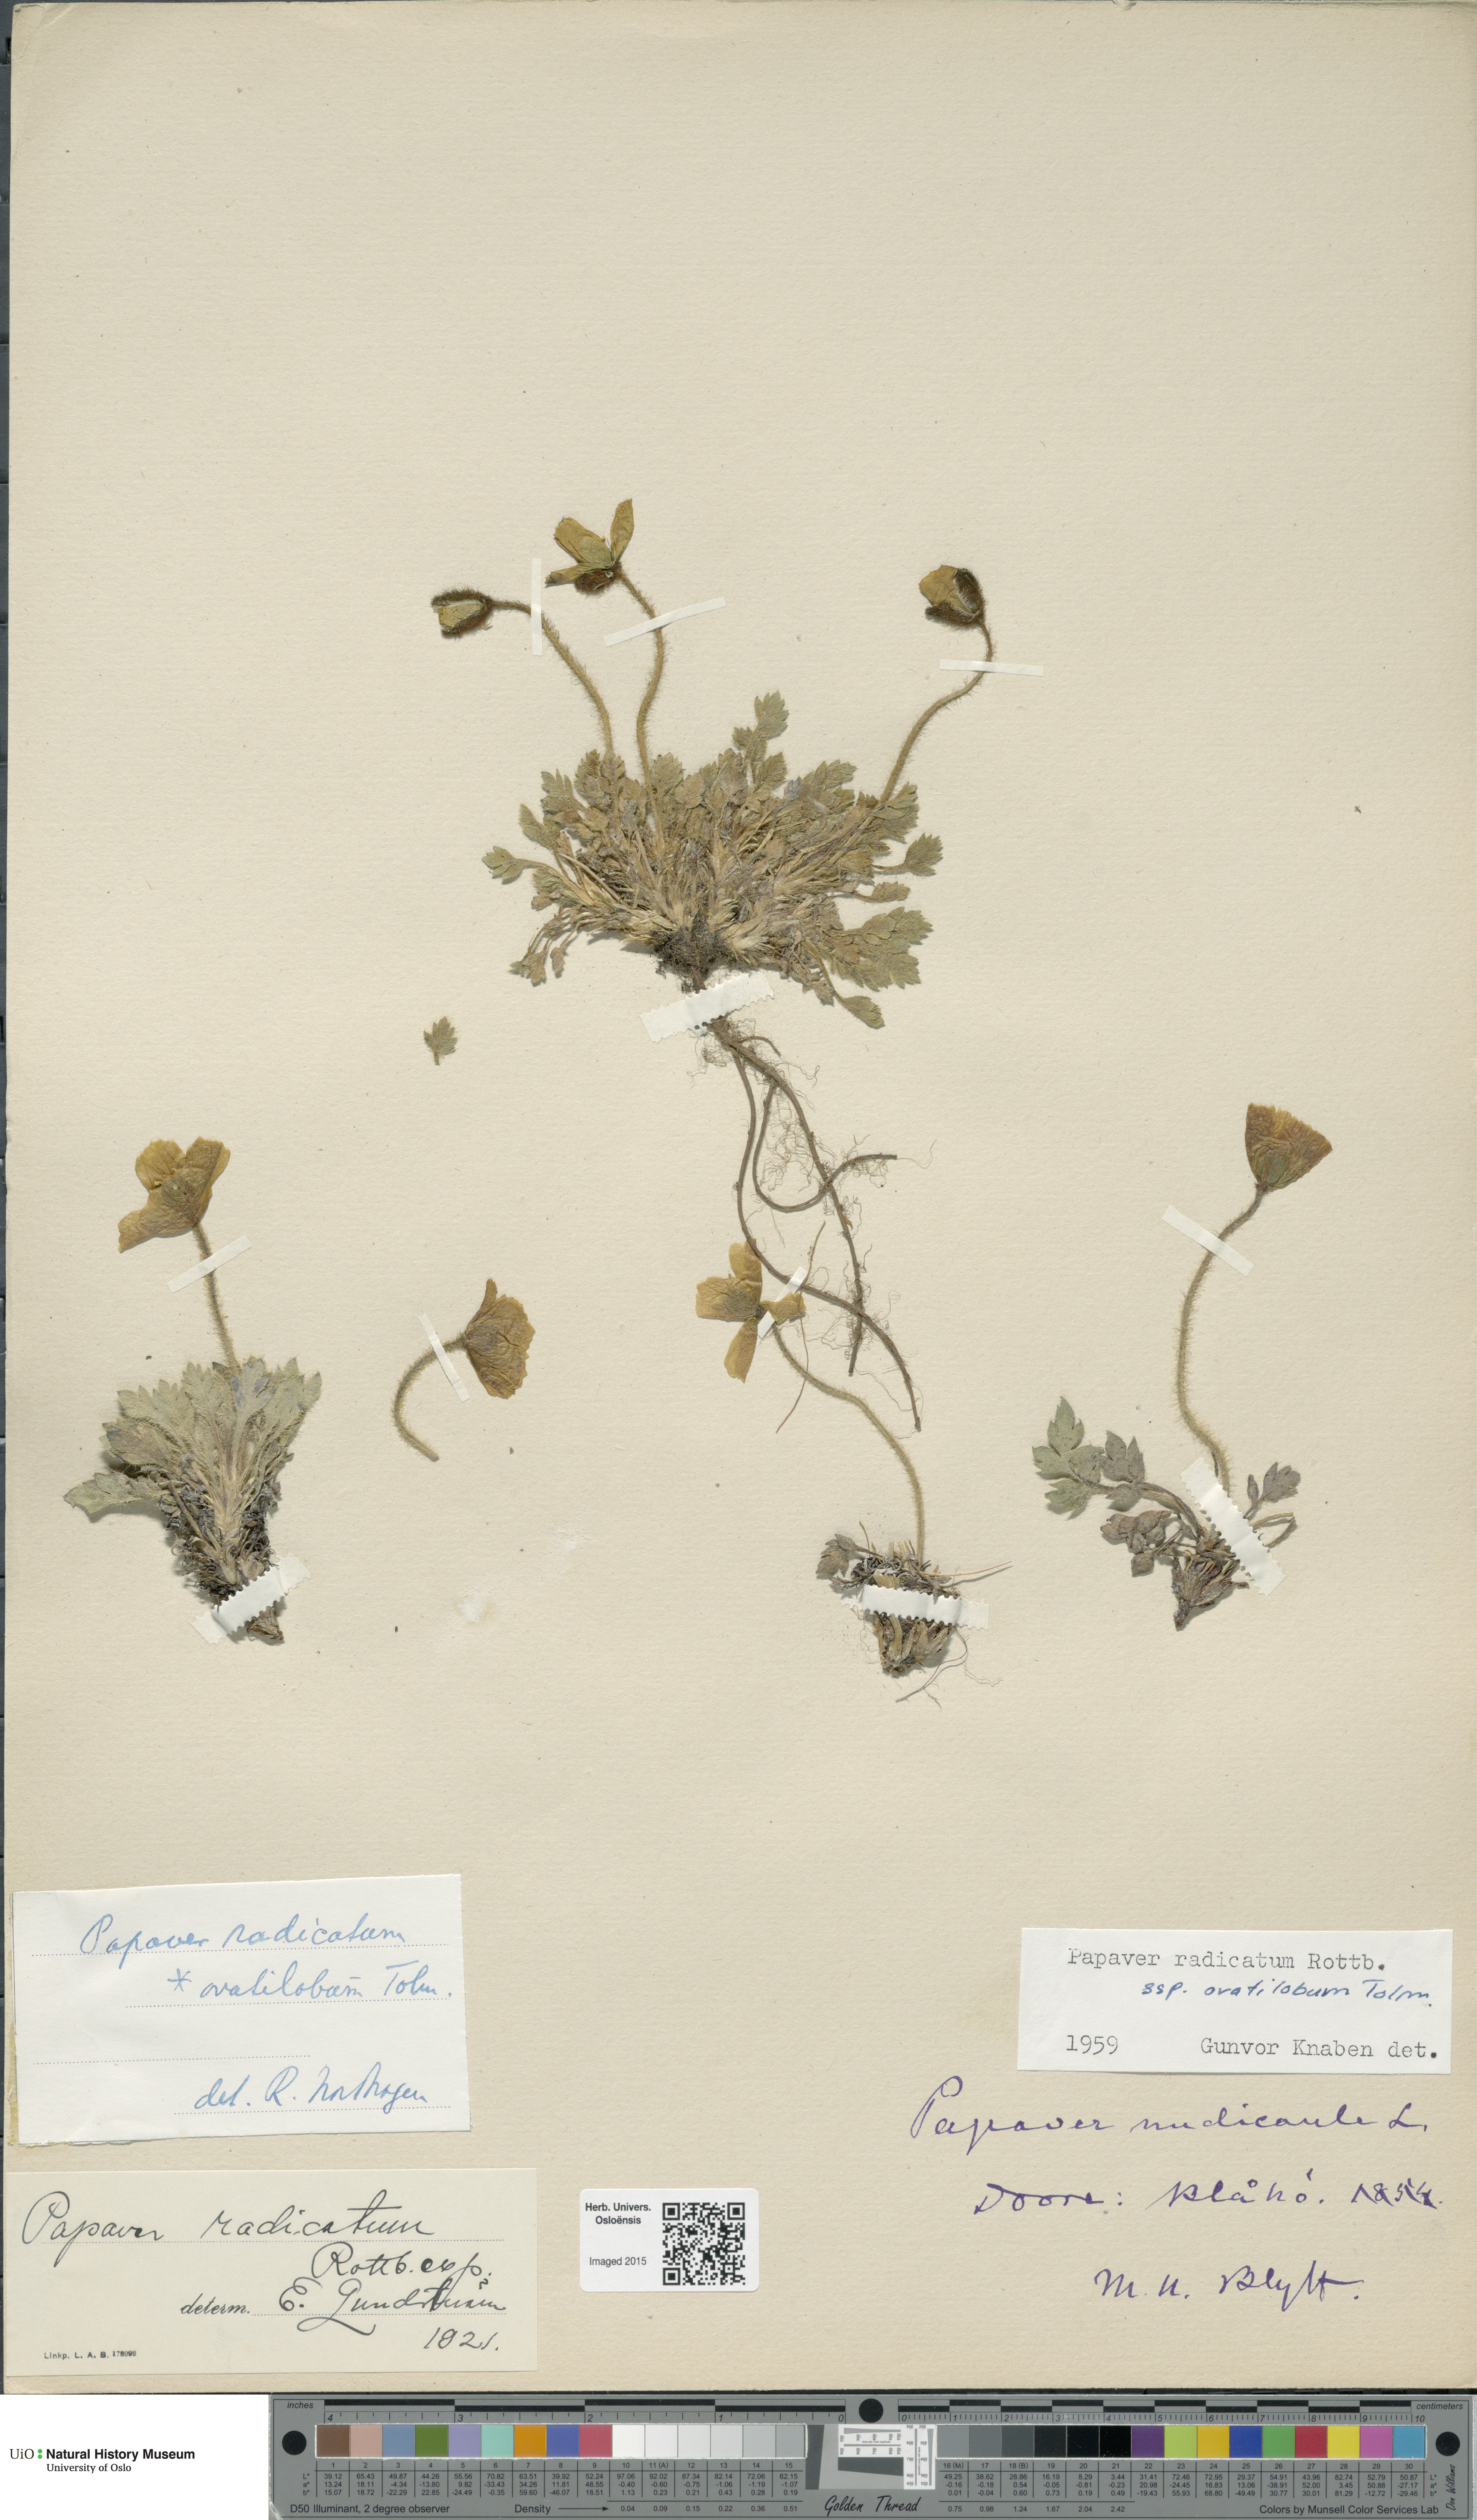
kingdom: Plantae
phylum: Tracheophyta
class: Magnoliopsida
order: Ranunculales
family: Papaveraceae
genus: Papaver
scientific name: Papaver radicatum
